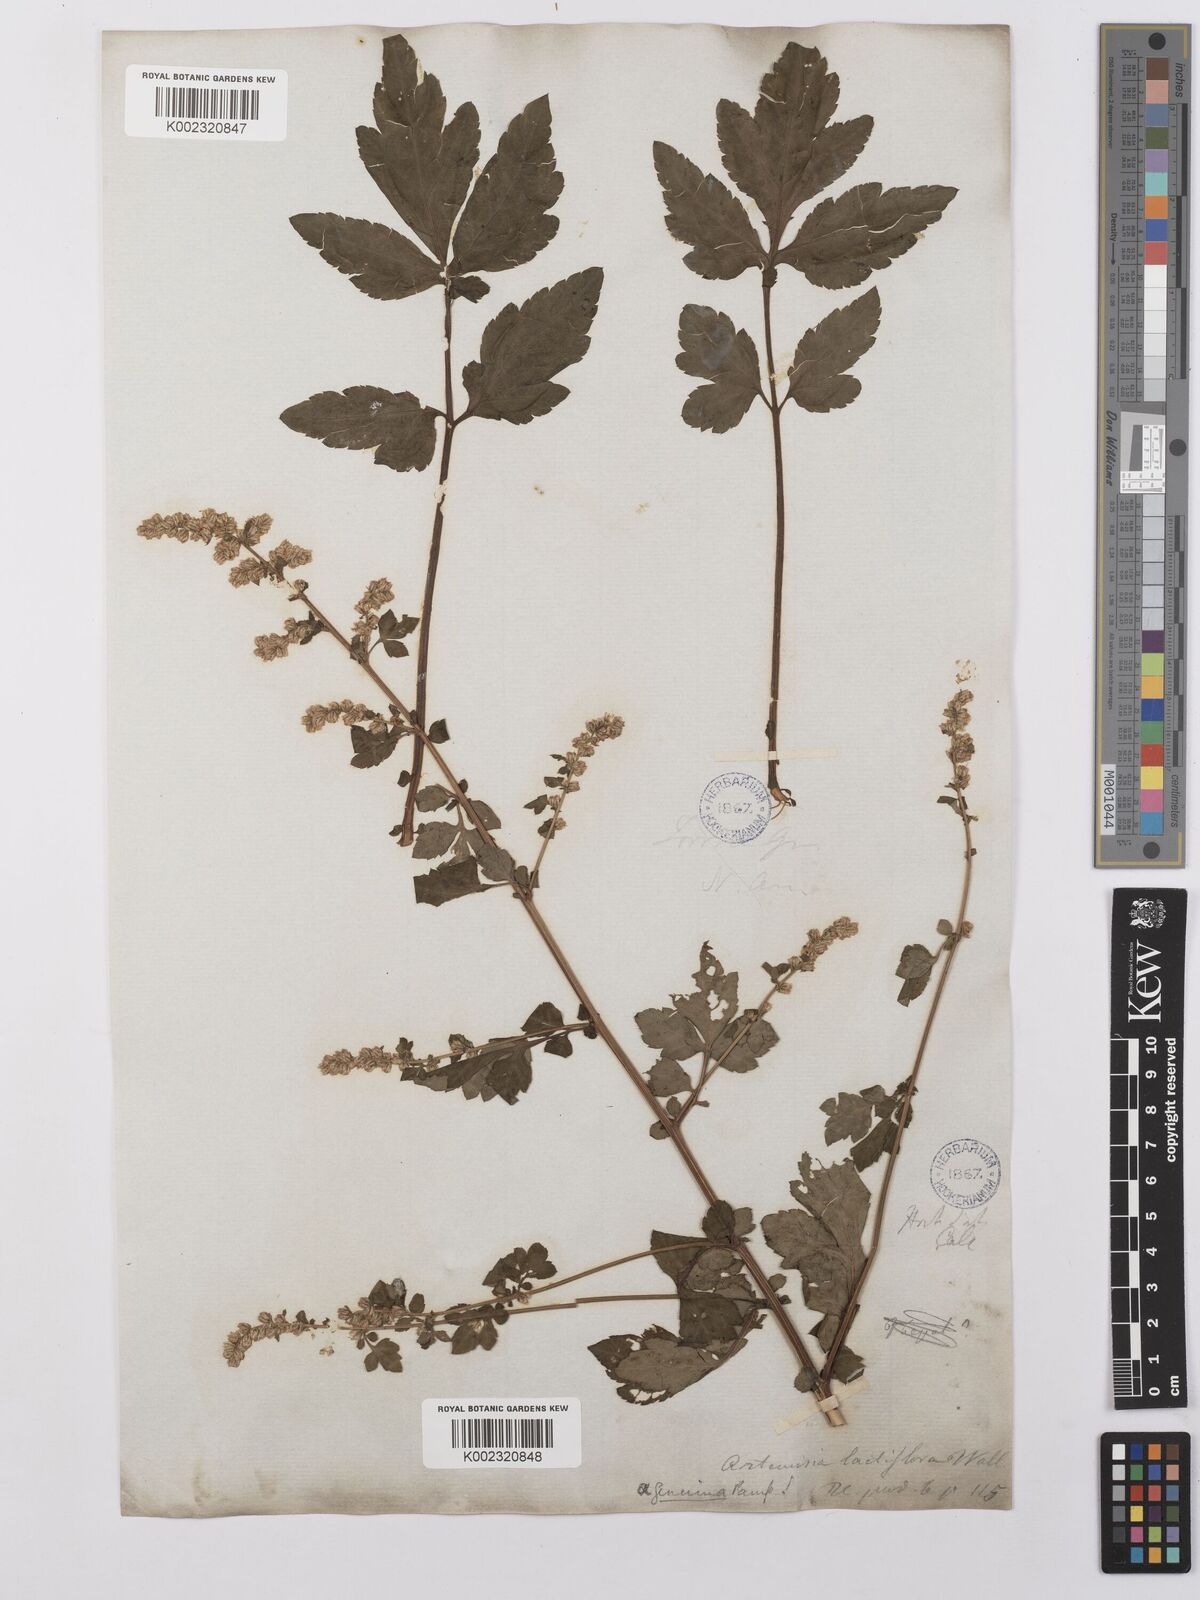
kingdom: Plantae
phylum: Tracheophyta
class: Magnoliopsida
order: Asterales
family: Asteraceae
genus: Artemisia
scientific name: Artemisia lactiflora
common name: White mugwort
